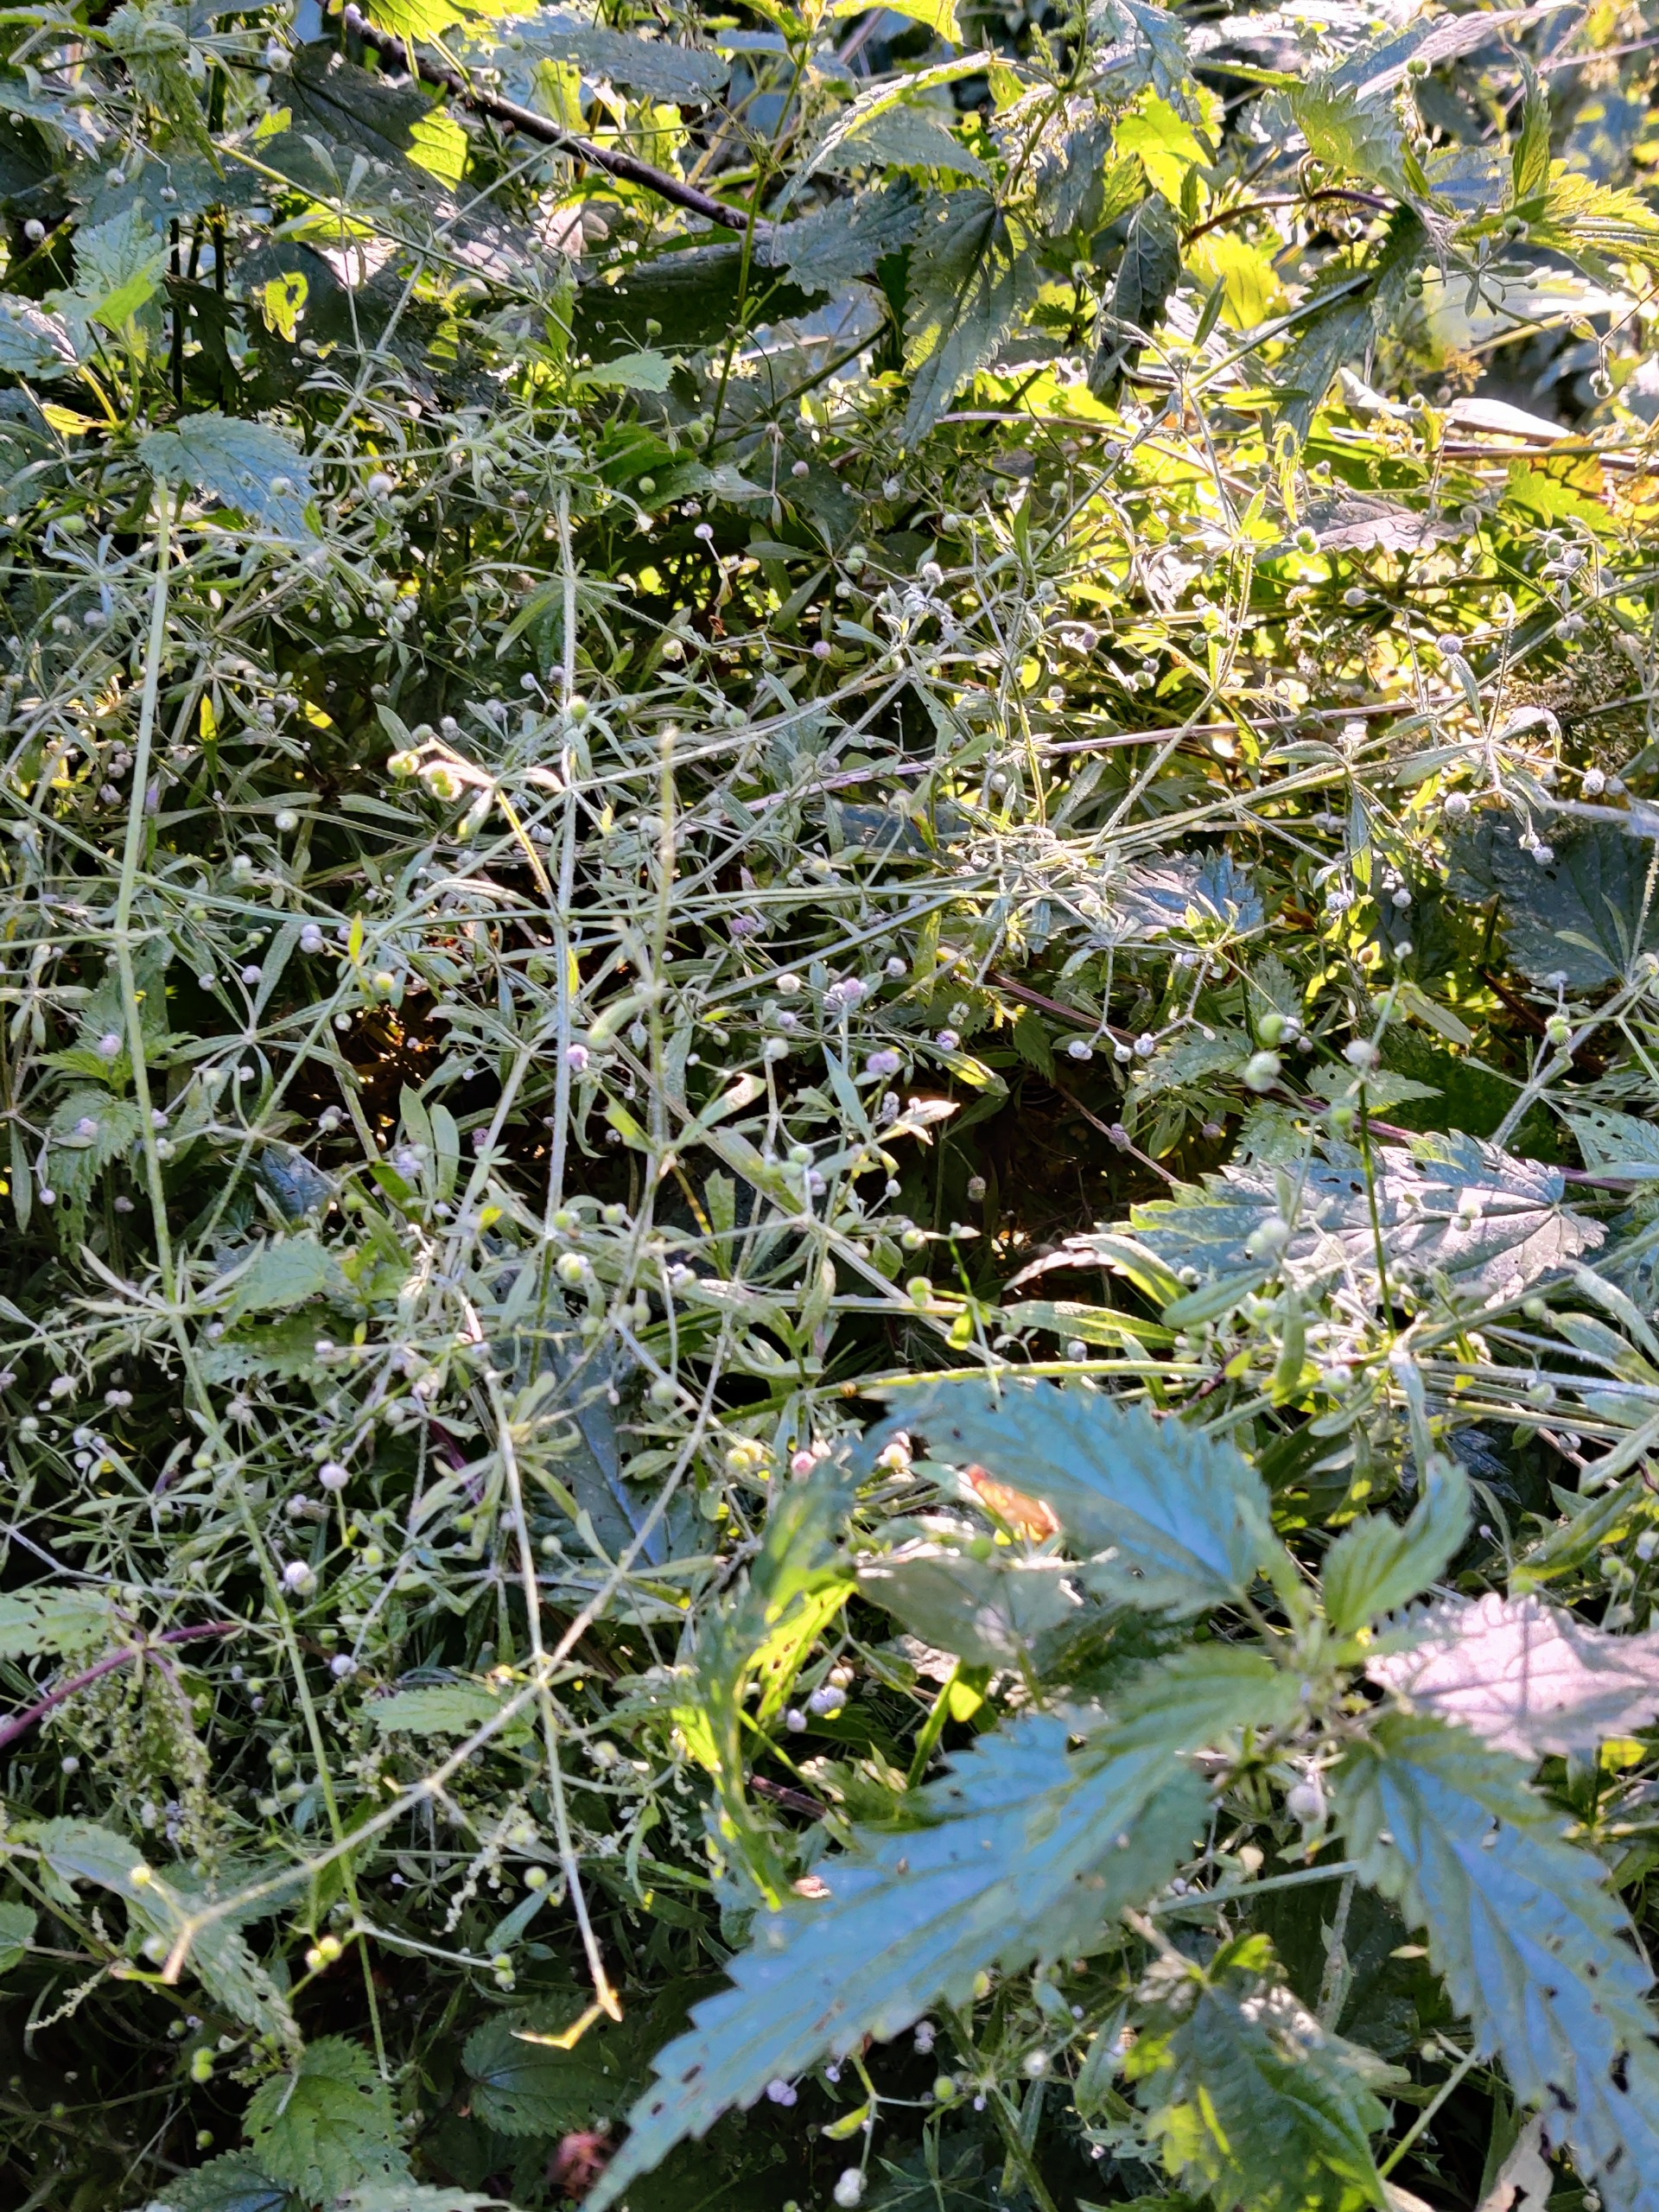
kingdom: Plantae
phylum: Tracheophyta
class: Magnoliopsida
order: Gentianales
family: Rubiaceae
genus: Galium
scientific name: Galium aparine
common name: Burre-snerre
